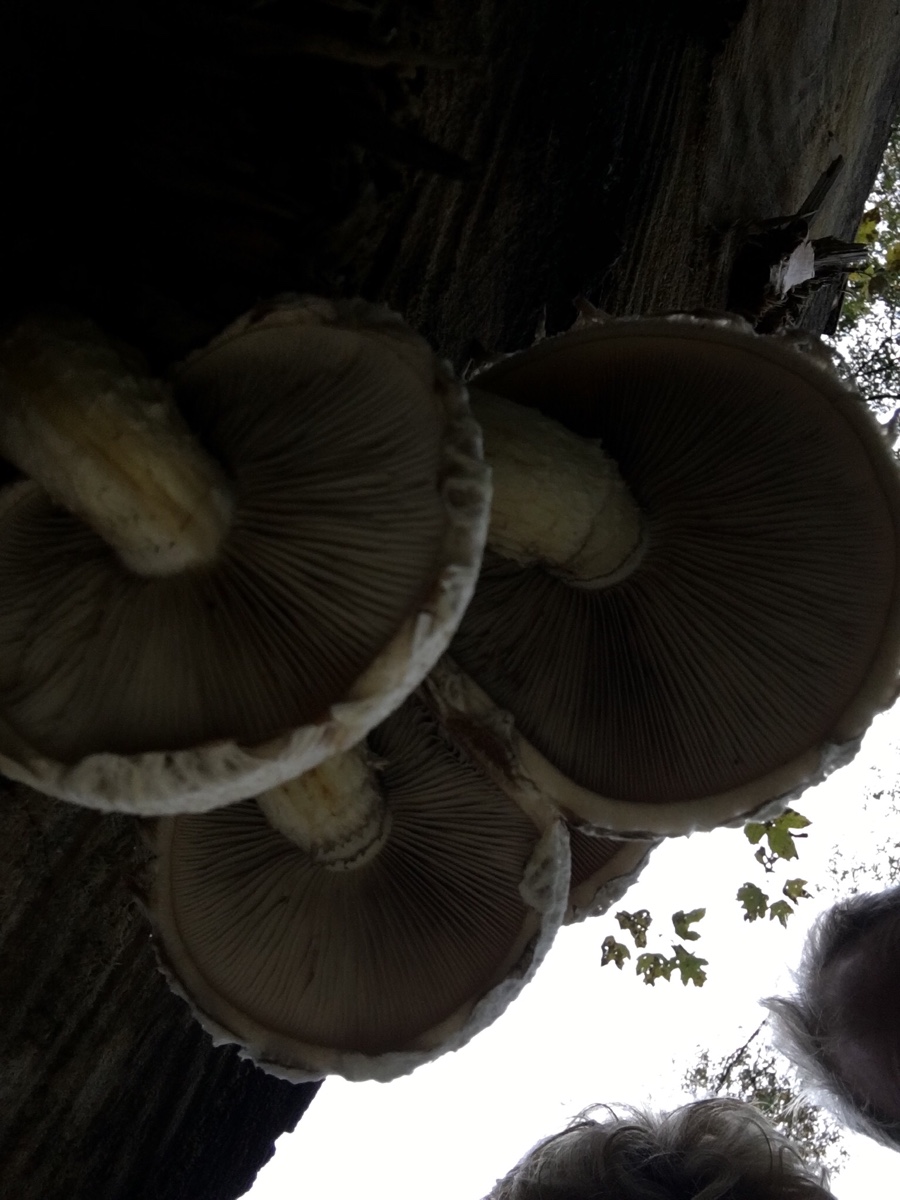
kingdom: Fungi
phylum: Basidiomycota
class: Agaricomycetes
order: Agaricales
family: Strophariaceae
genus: Pholiota
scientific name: Pholiota populnea
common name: poppel-kæmpeskælhat
